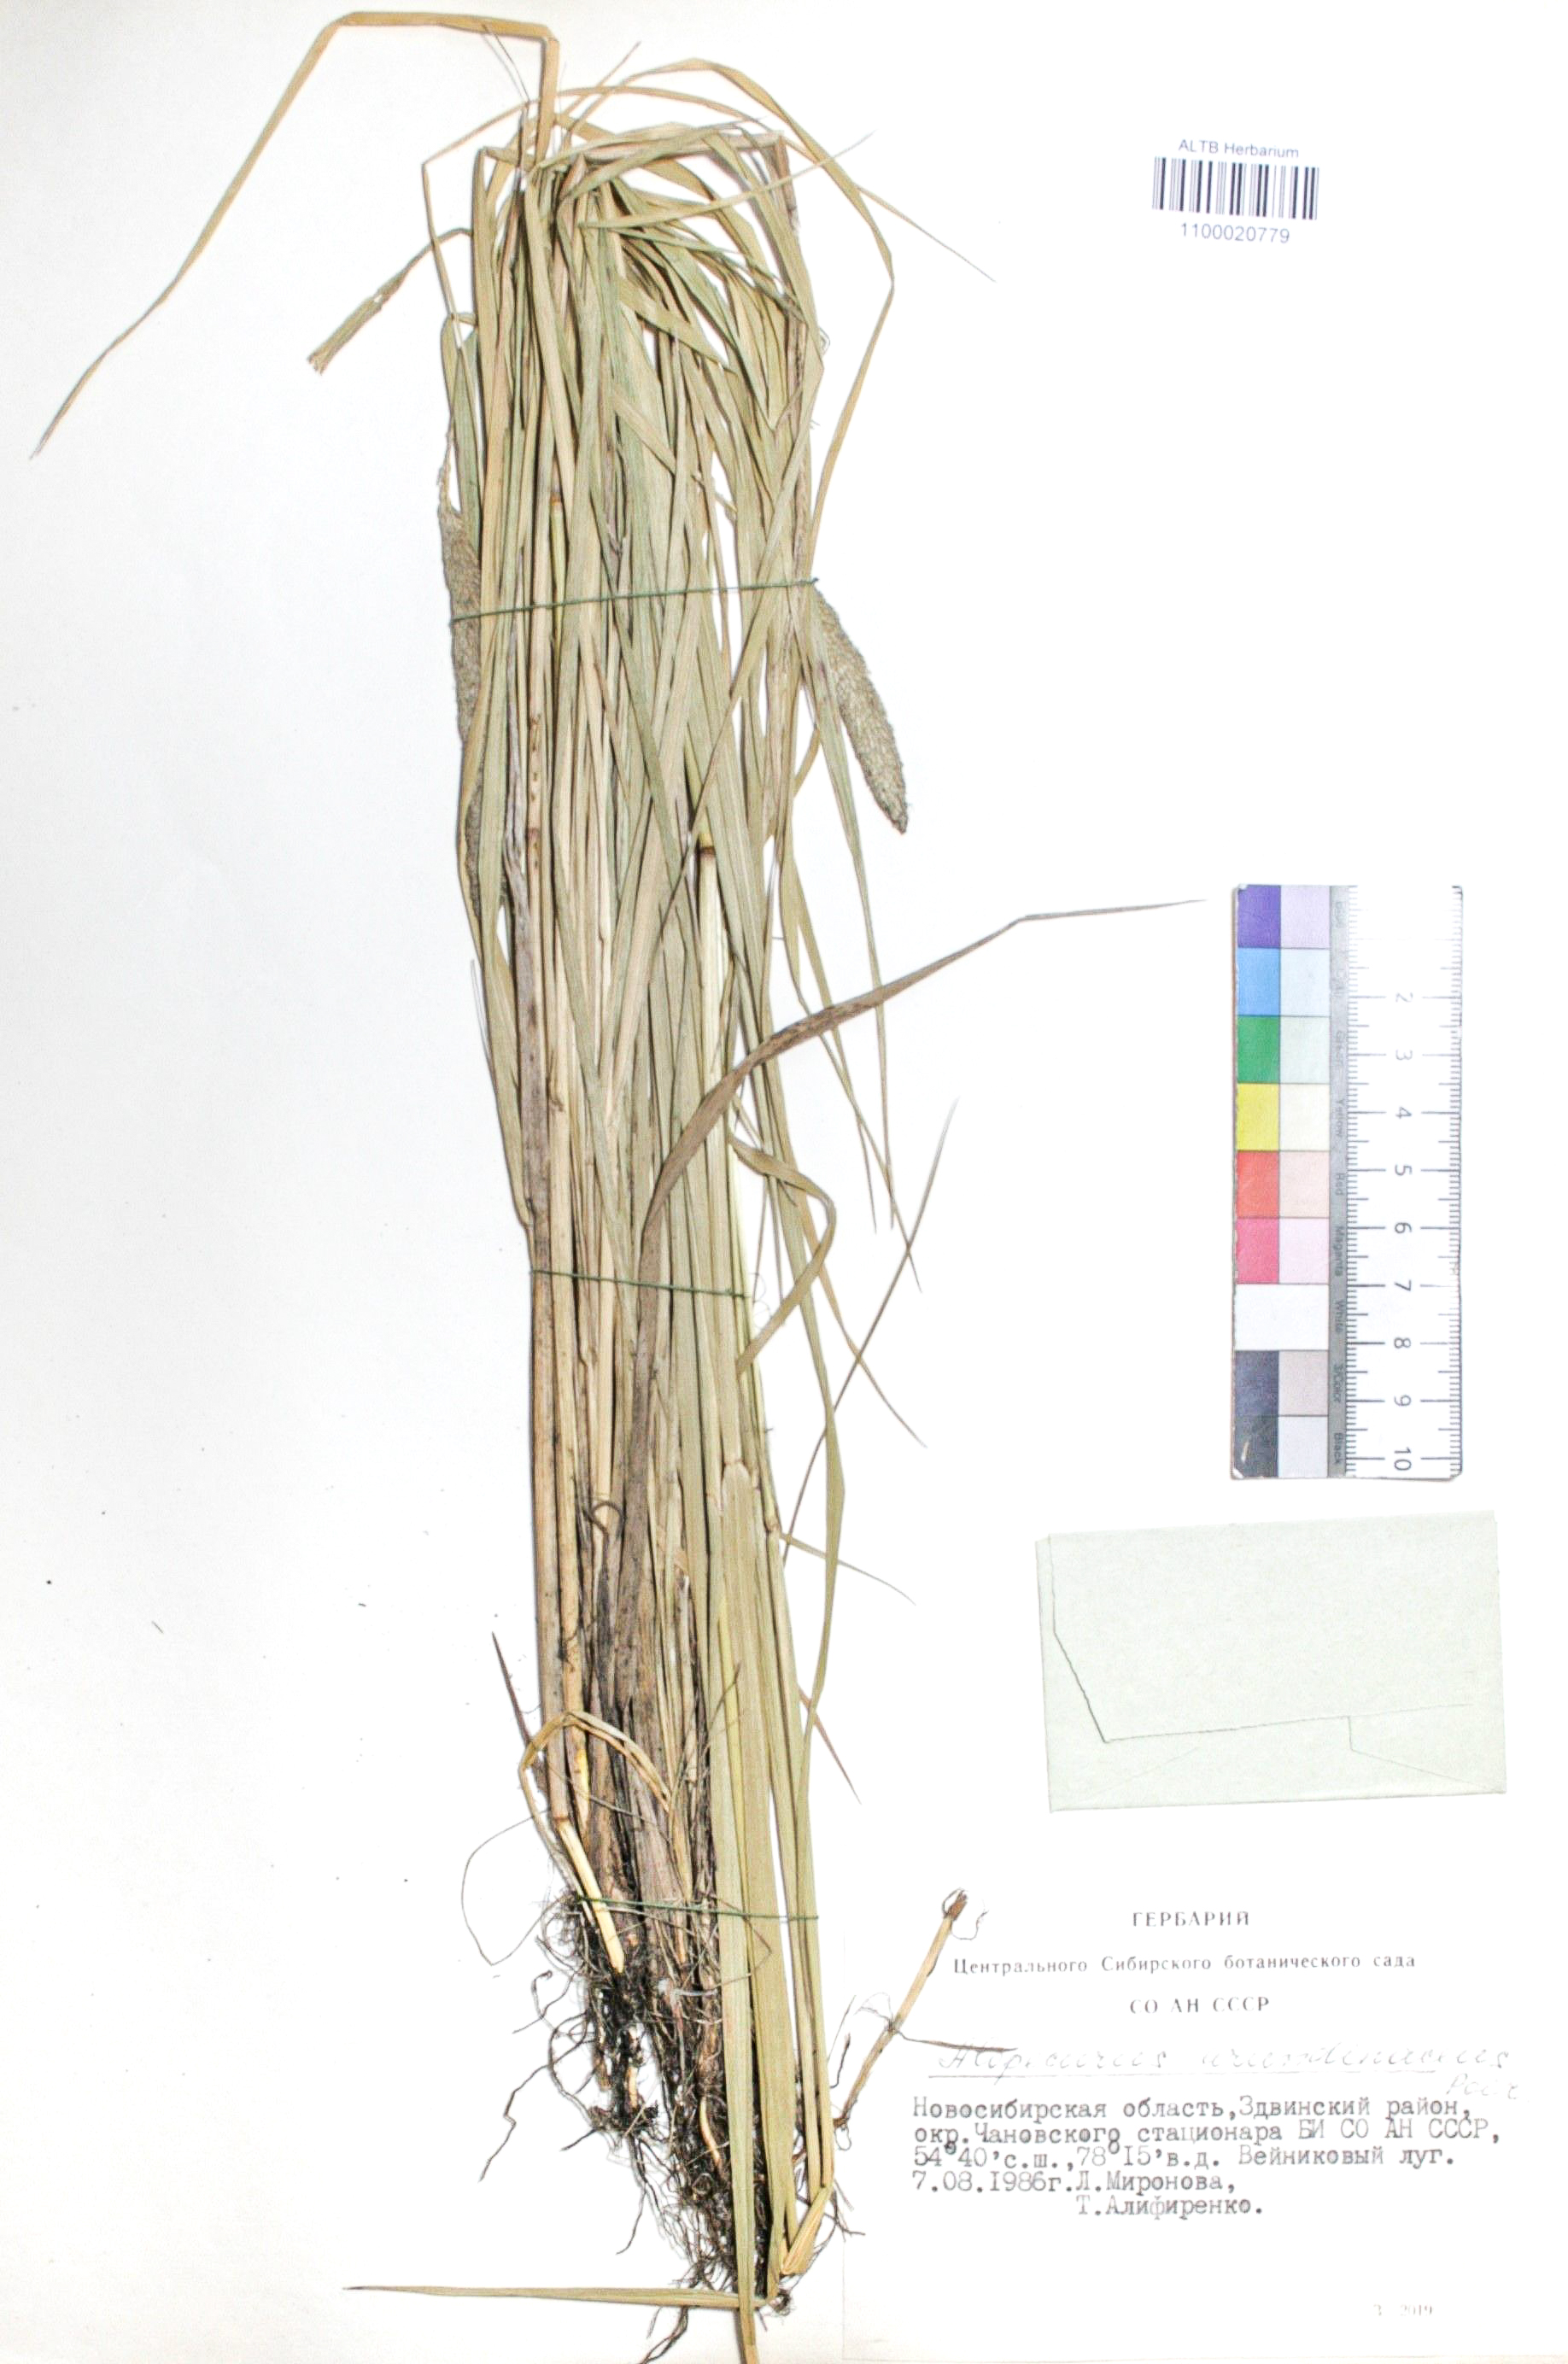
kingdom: Plantae
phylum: Tracheophyta
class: Liliopsida
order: Poales
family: Poaceae
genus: Alopecurus
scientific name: Alopecurus arundinaceus
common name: Creeping meadow foxtail
